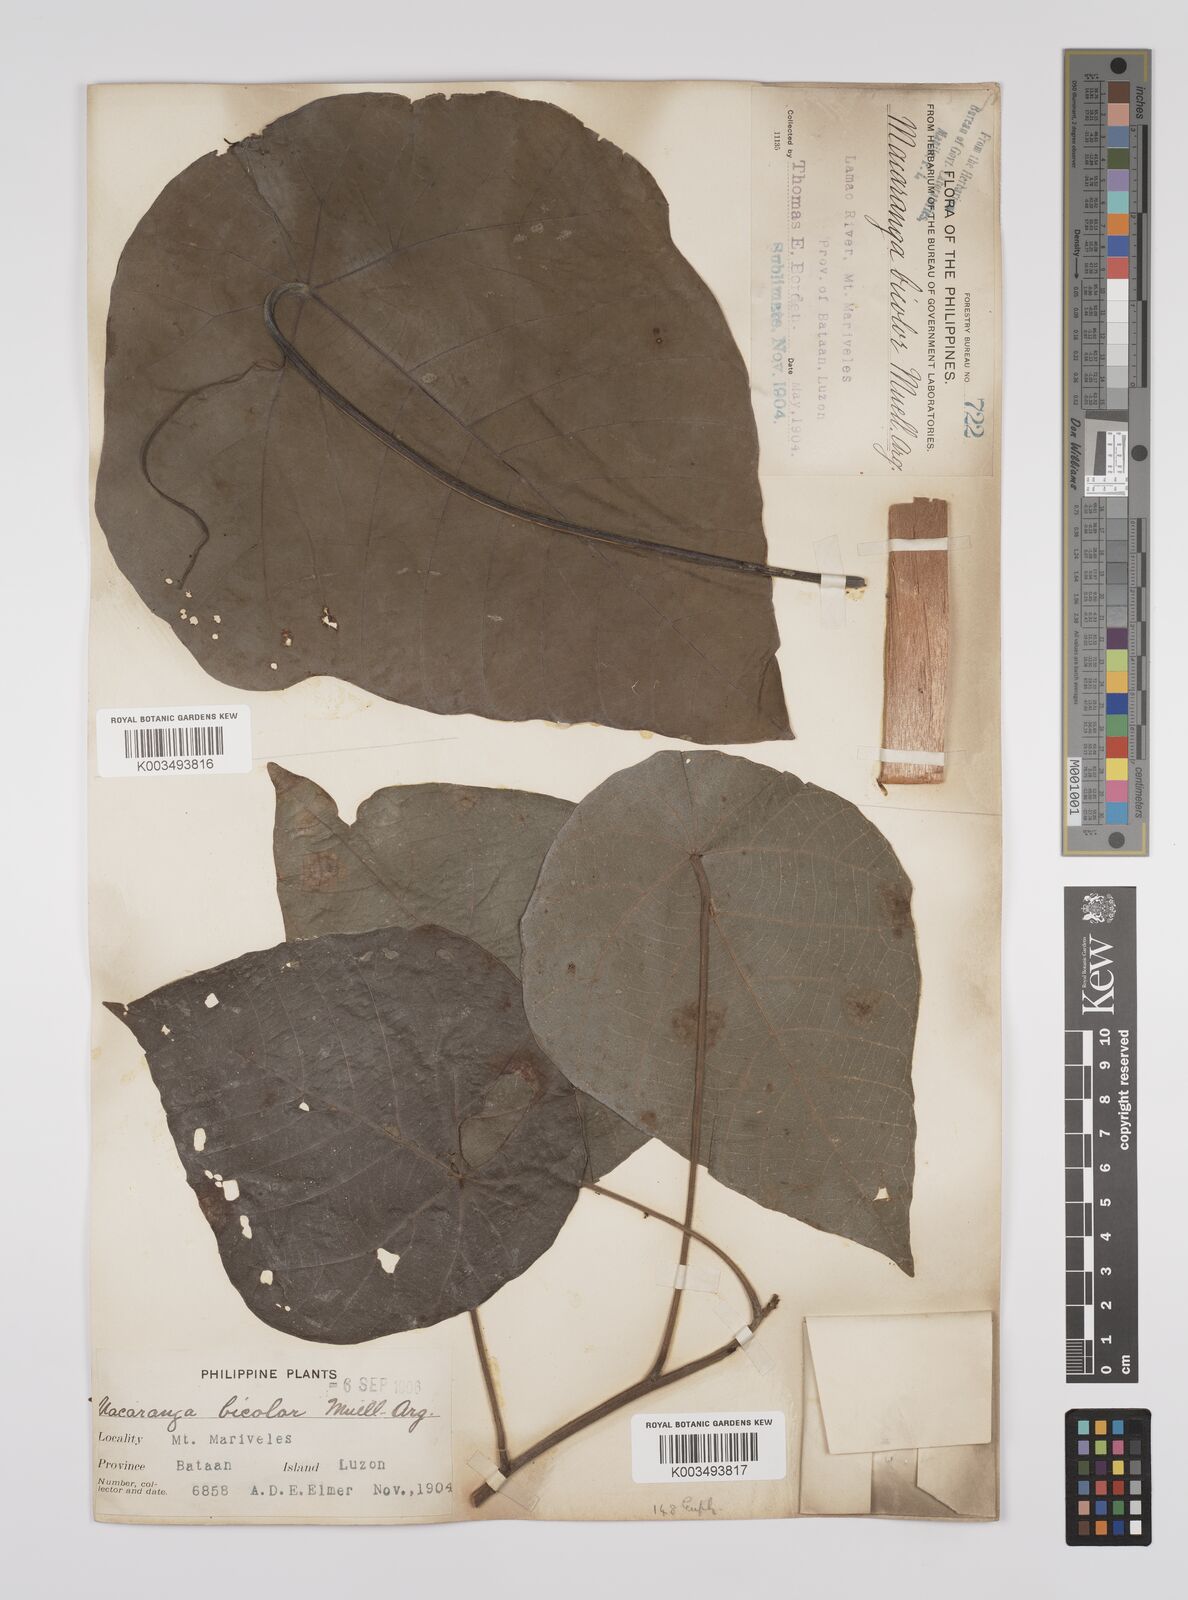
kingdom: Plantae
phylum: Tracheophyta
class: Magnoliopsida
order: Malpighiales
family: Euphorbiaceae
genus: Macaranga
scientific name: Macaranga bicolor
